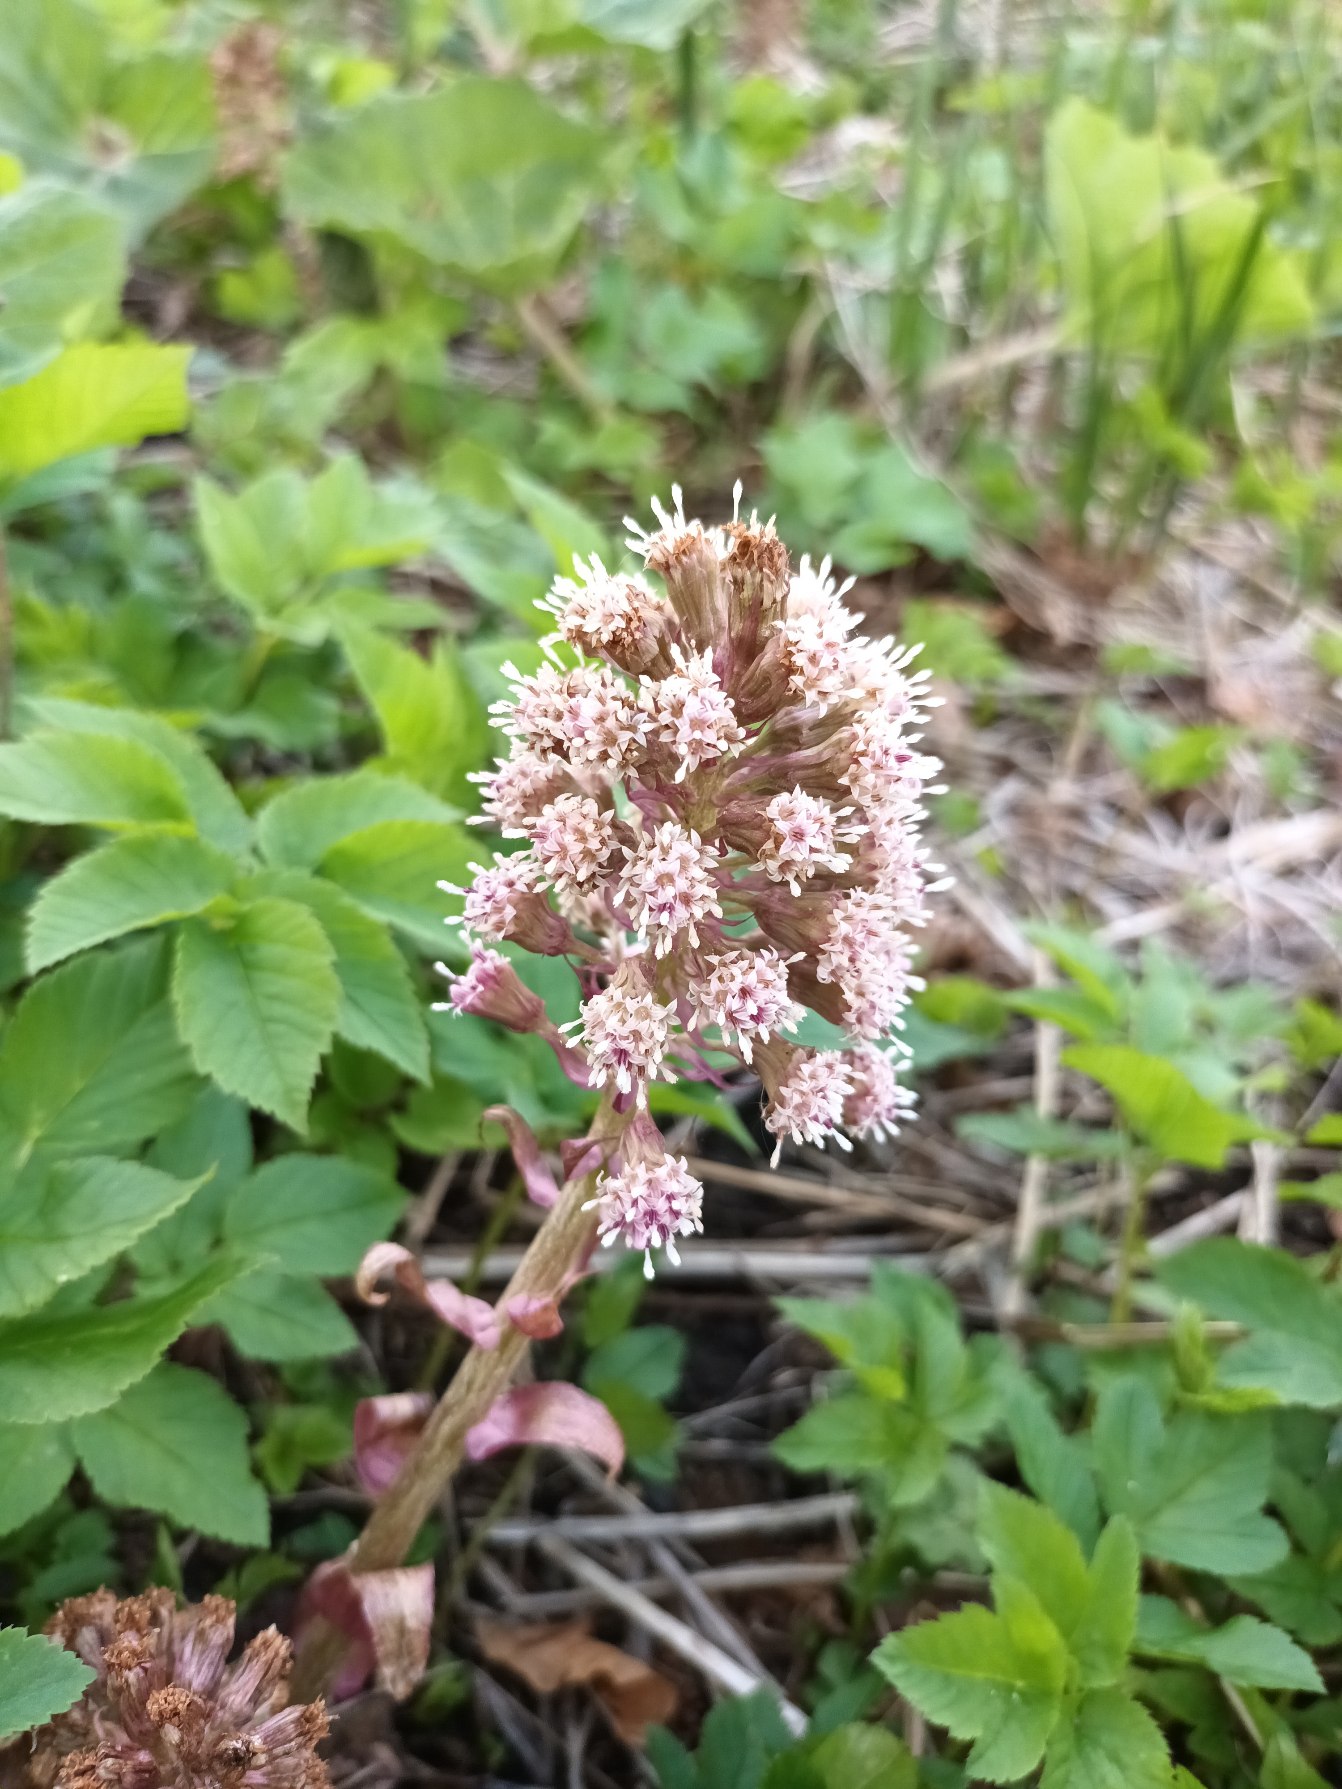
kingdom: Plantae
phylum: Tracheophyta
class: Magnoliopsida
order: Asterales
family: Asteraceae
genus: Petasites
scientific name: Petasites hybridus
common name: Rød hestehov
